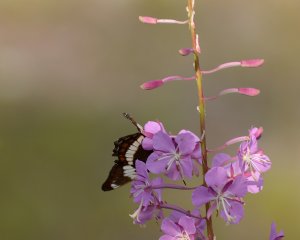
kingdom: Animalia
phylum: Arthropoda
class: Insecta
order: Lepidoptera
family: Nymphalidae
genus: Limenitis
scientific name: Limenitis arthemis
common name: Red-spotted Admiral
